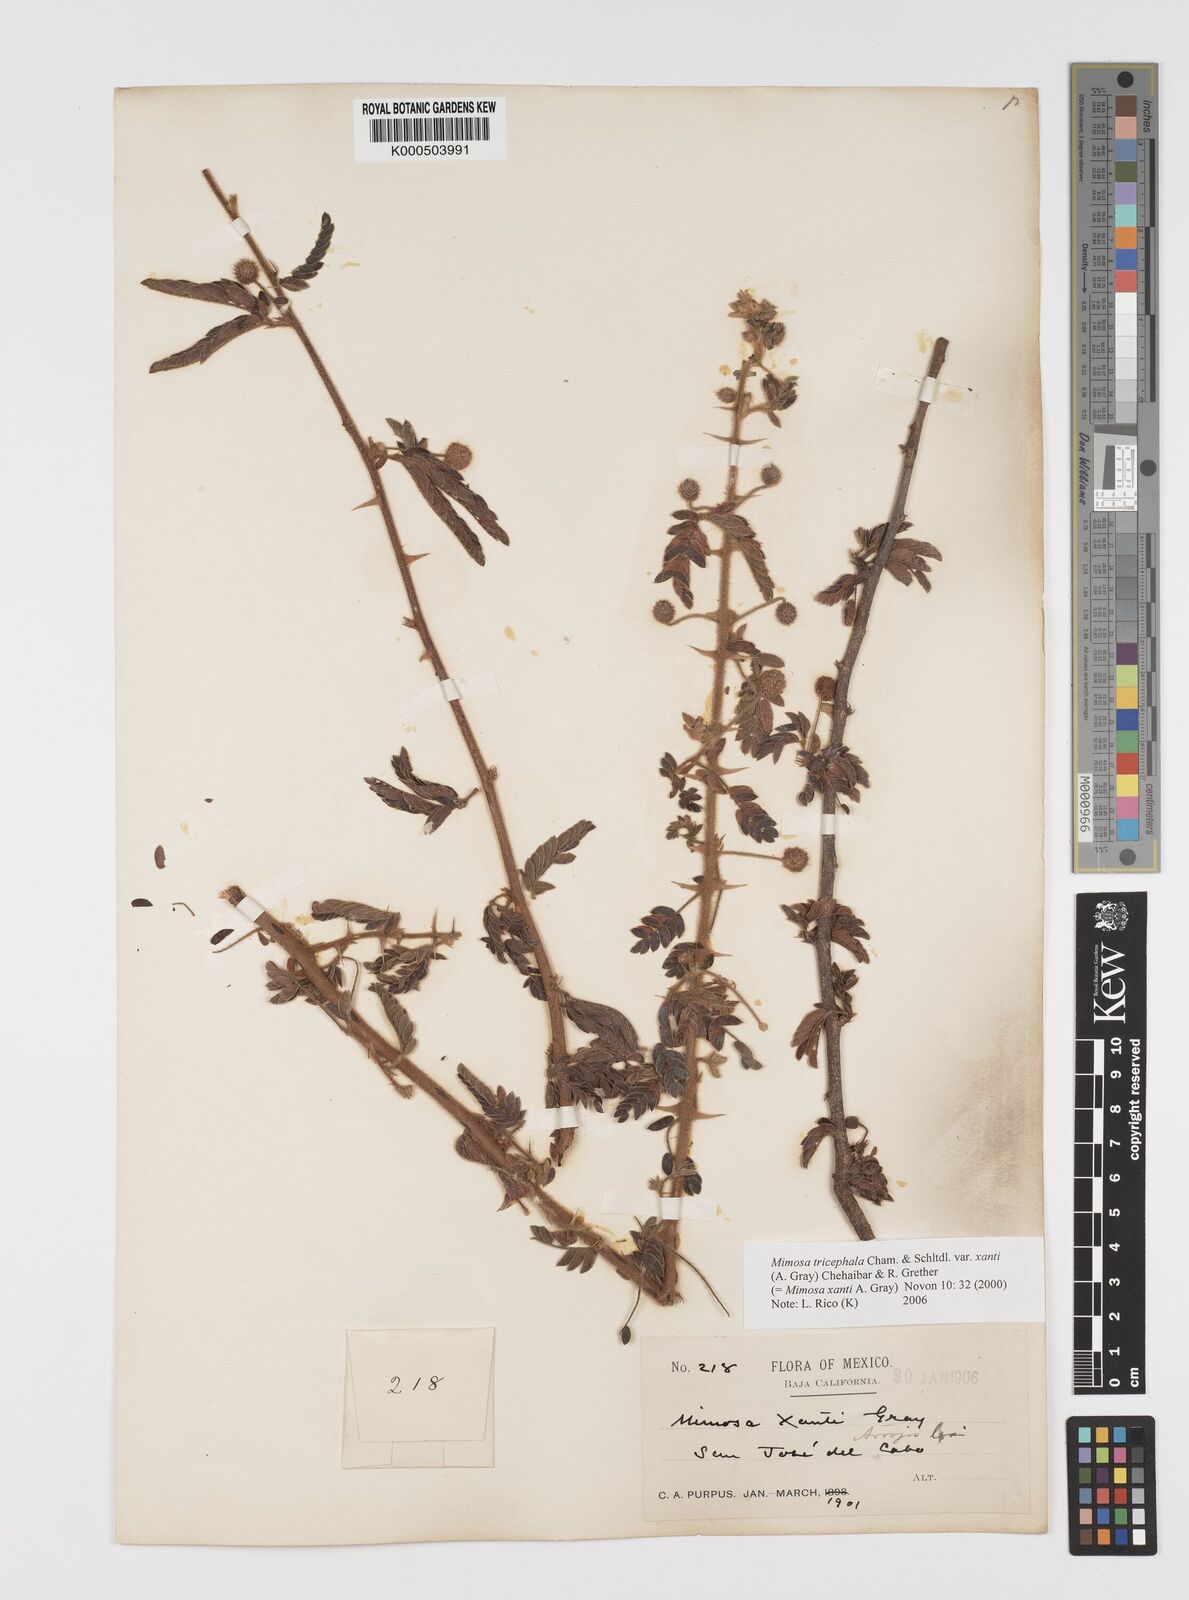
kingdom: Plantae
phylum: Tracheophyta
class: Magnoliopsida
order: Fabales
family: Fabaceae
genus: Mimosa
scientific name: Mimosa tricephala
